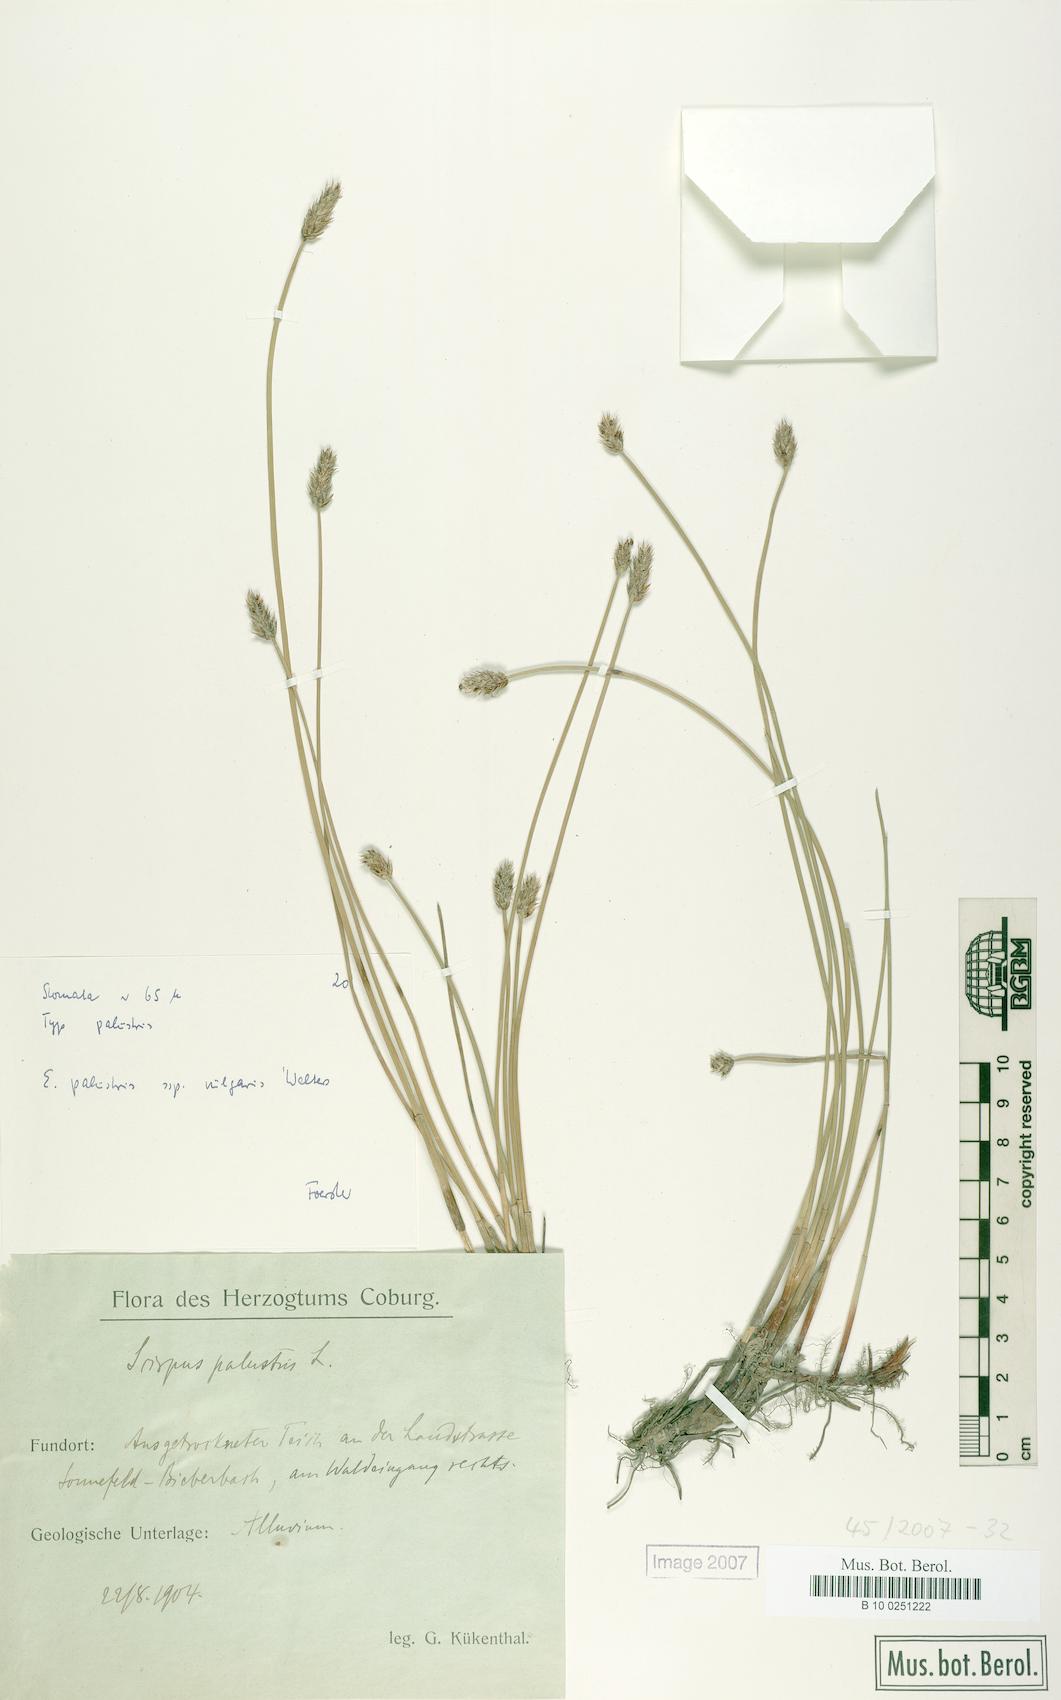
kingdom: Plantae
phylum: Tracheophyta
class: Liliopsida
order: Poales
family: Cyperaceae
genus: Eleocharis
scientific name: Eleocharis palustris
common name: Common spike-rush
